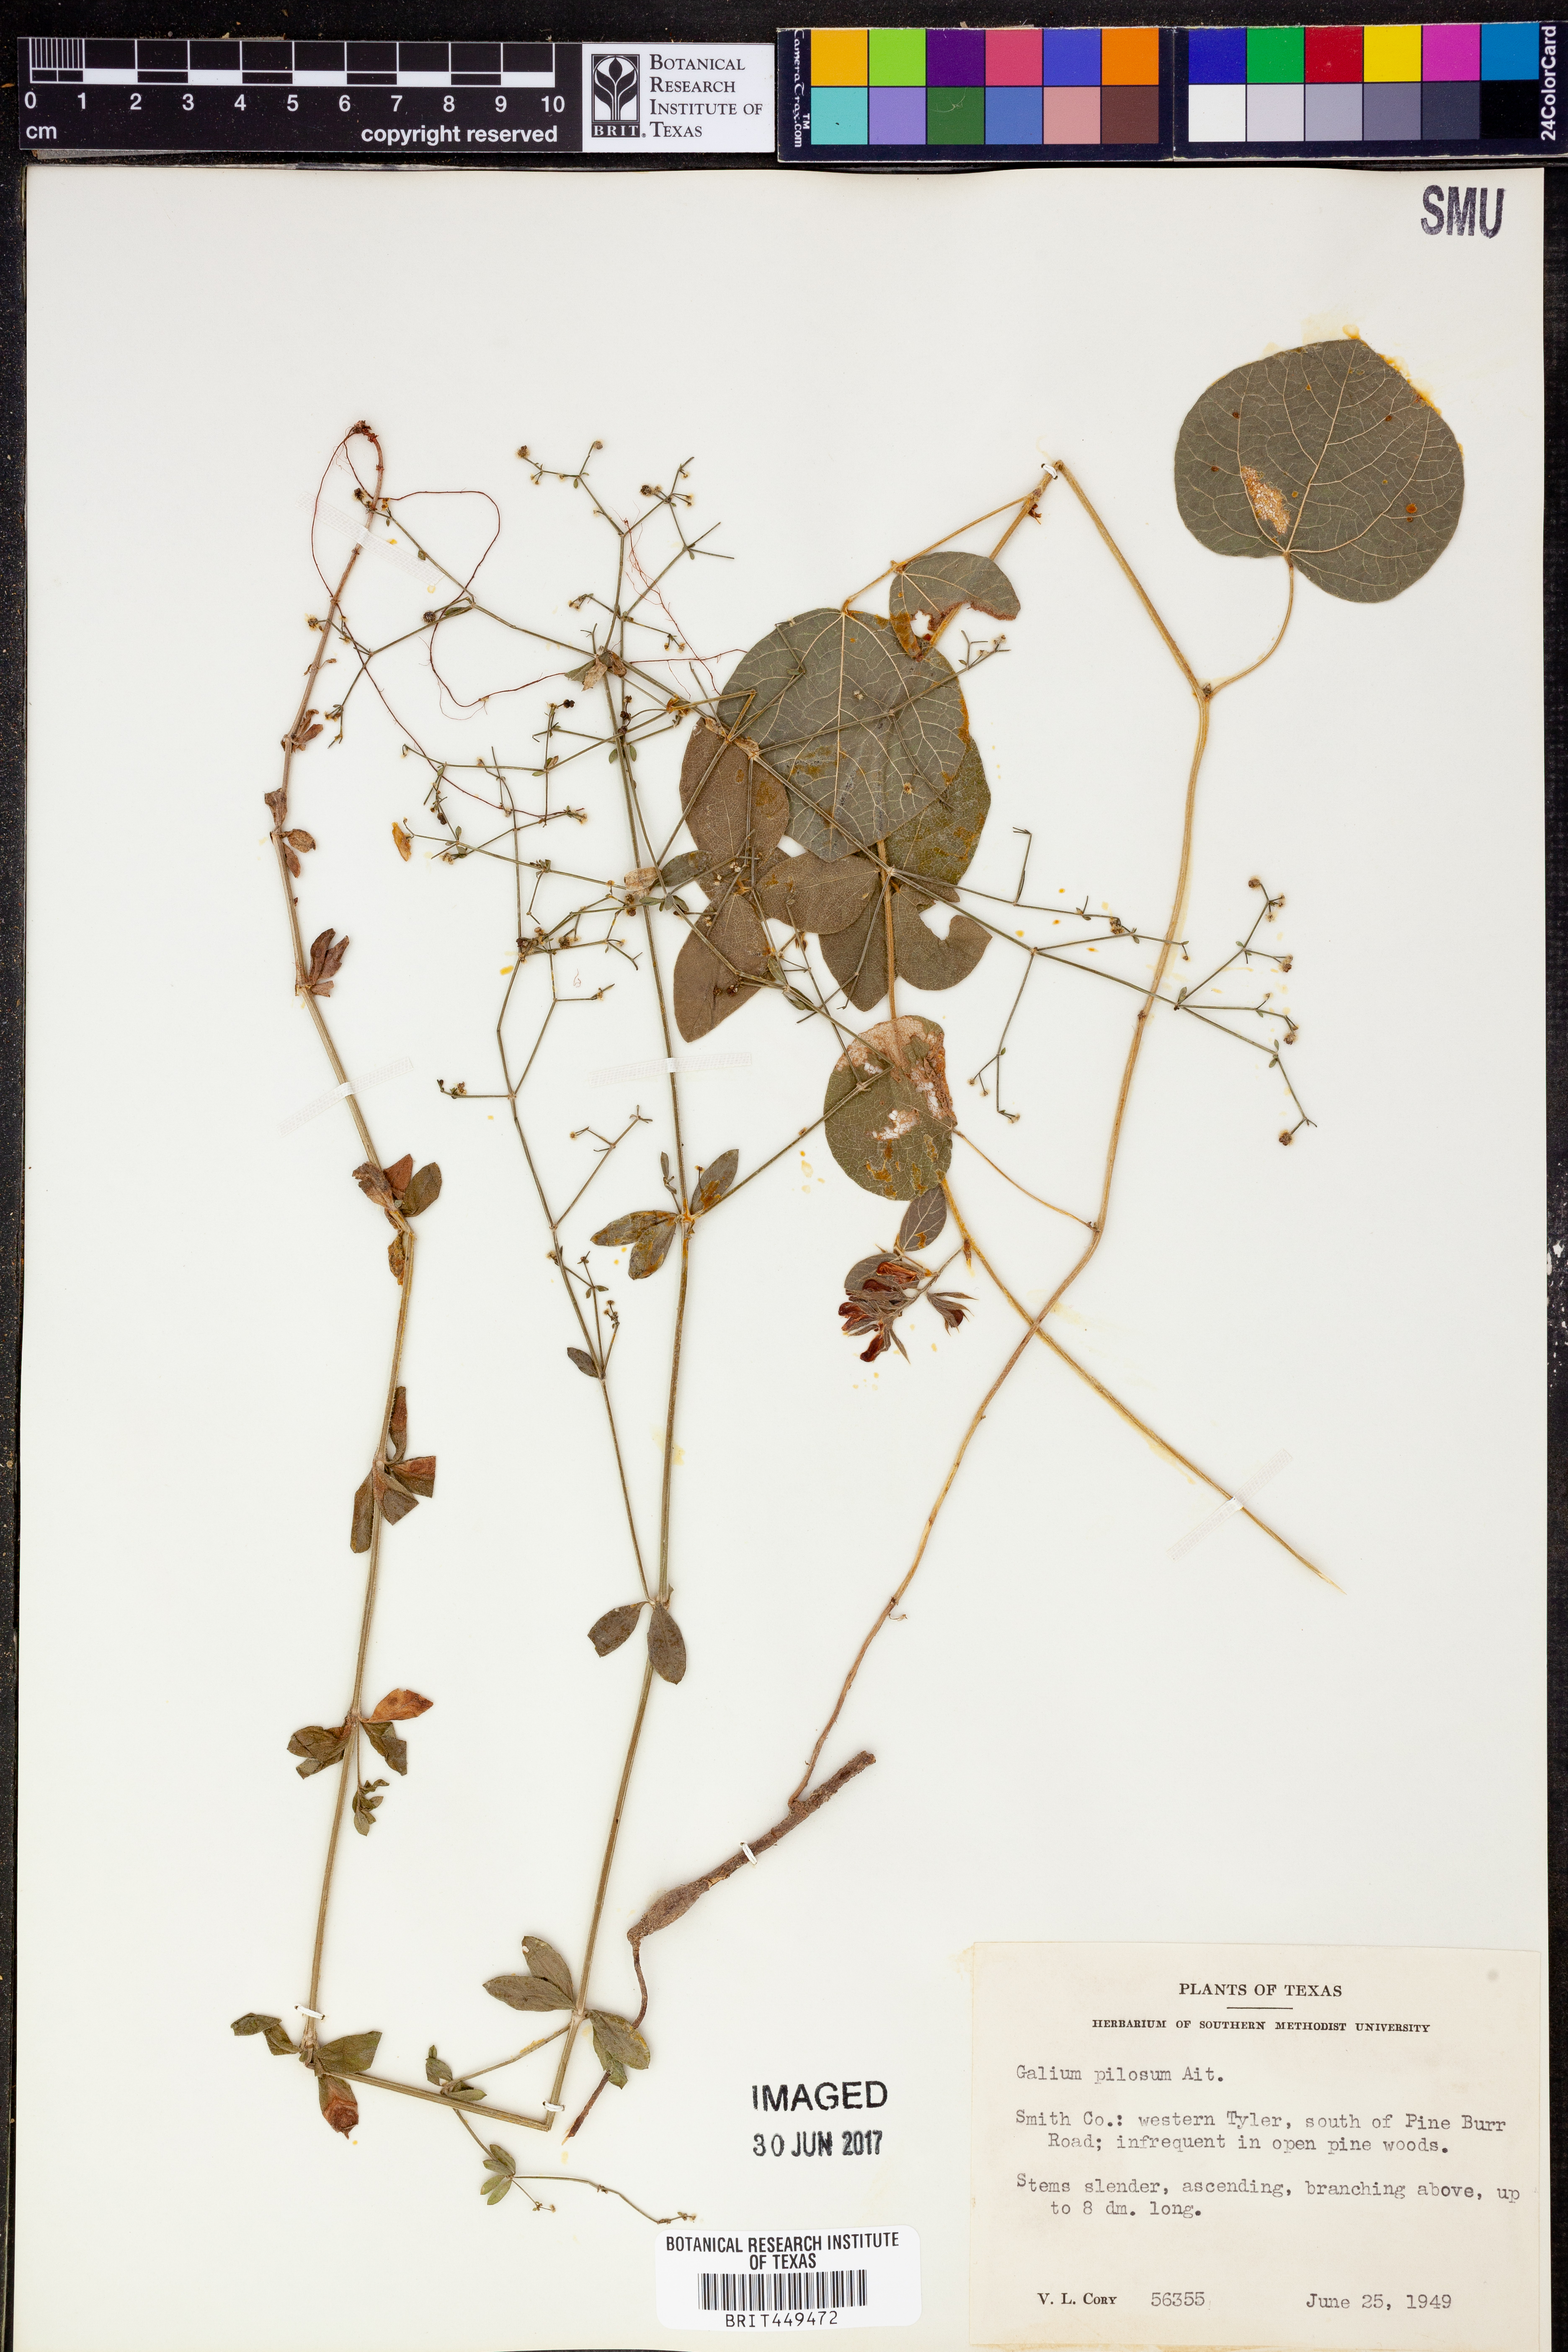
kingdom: Plantae
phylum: Tracheophyta
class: Magnoliopsida
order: Gentianales
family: Rubiaceae
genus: Galium
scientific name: Galium pilosum
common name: Hairy bedstraw
